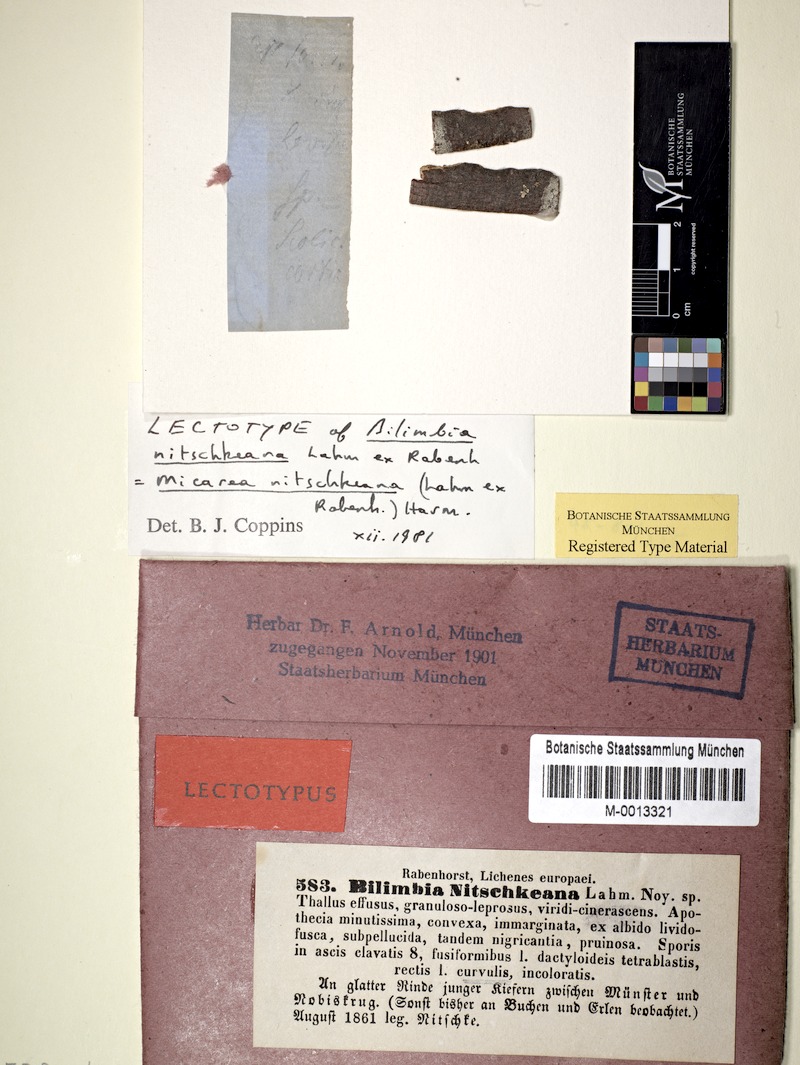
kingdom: Fungi
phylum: Ascomycota
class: Lecanoromycetes
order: Lecanorales
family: Byssolomataceae
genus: Micarea
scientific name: Micarea nitschkeana
